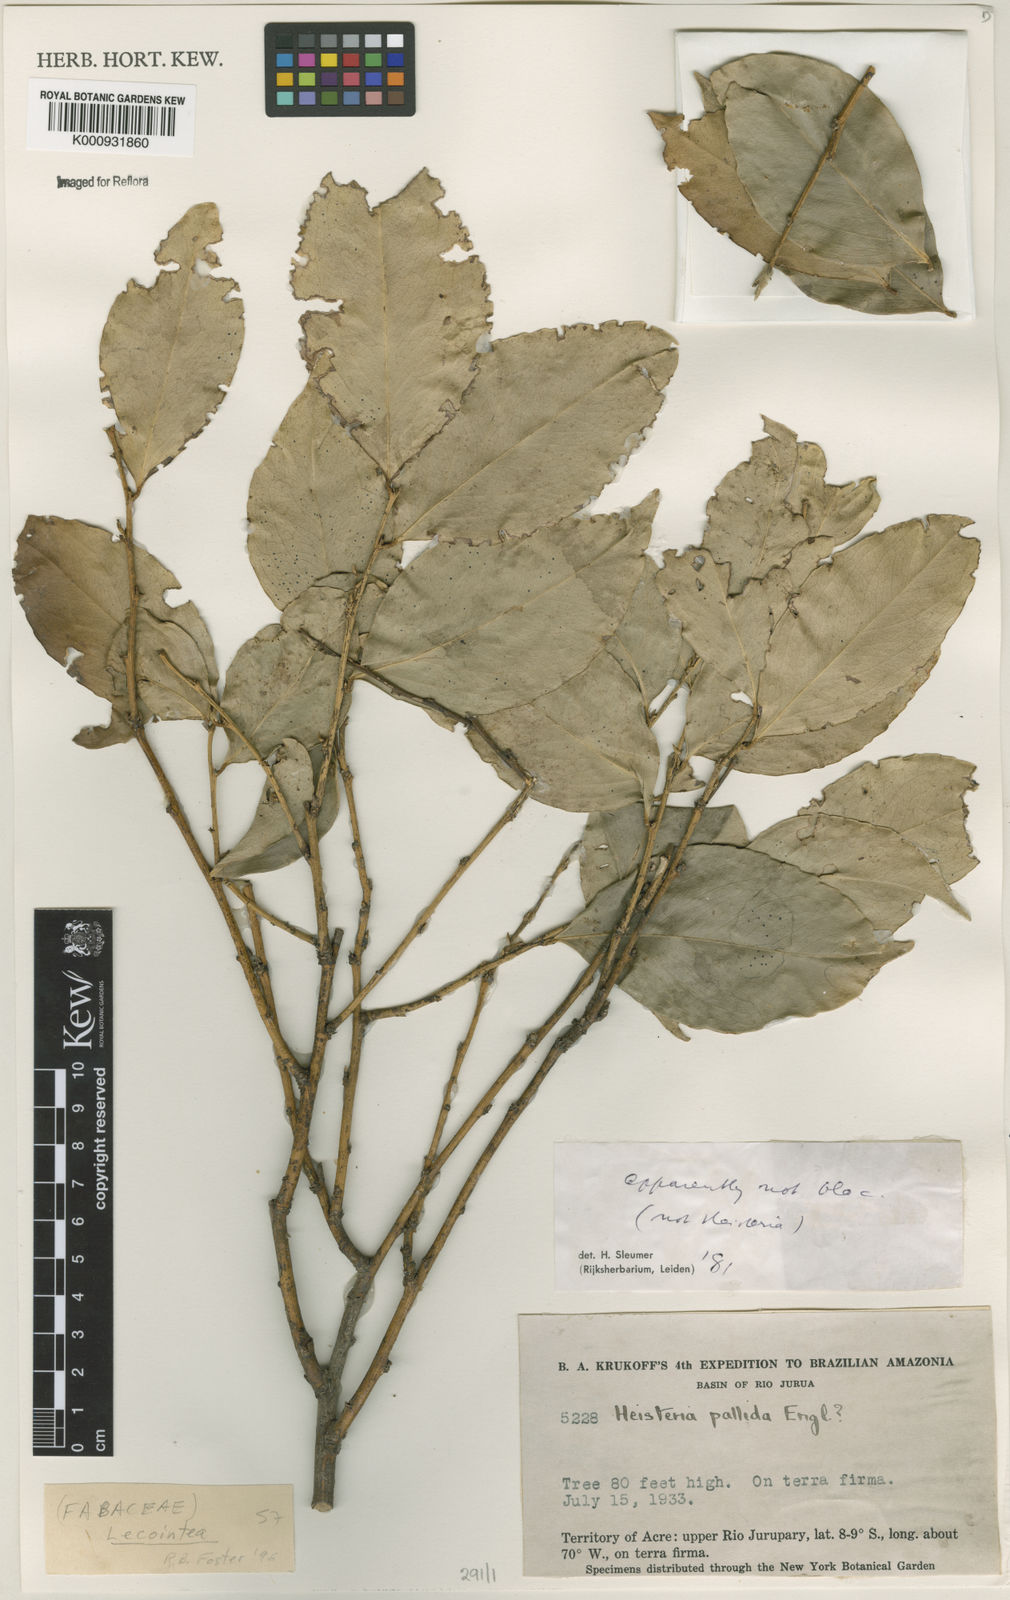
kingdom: Plantae
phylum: Tracheophyta
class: Magnoliopsida
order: Fabales
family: Fabaceae
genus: Lecointea
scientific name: Lecointea amazonica
